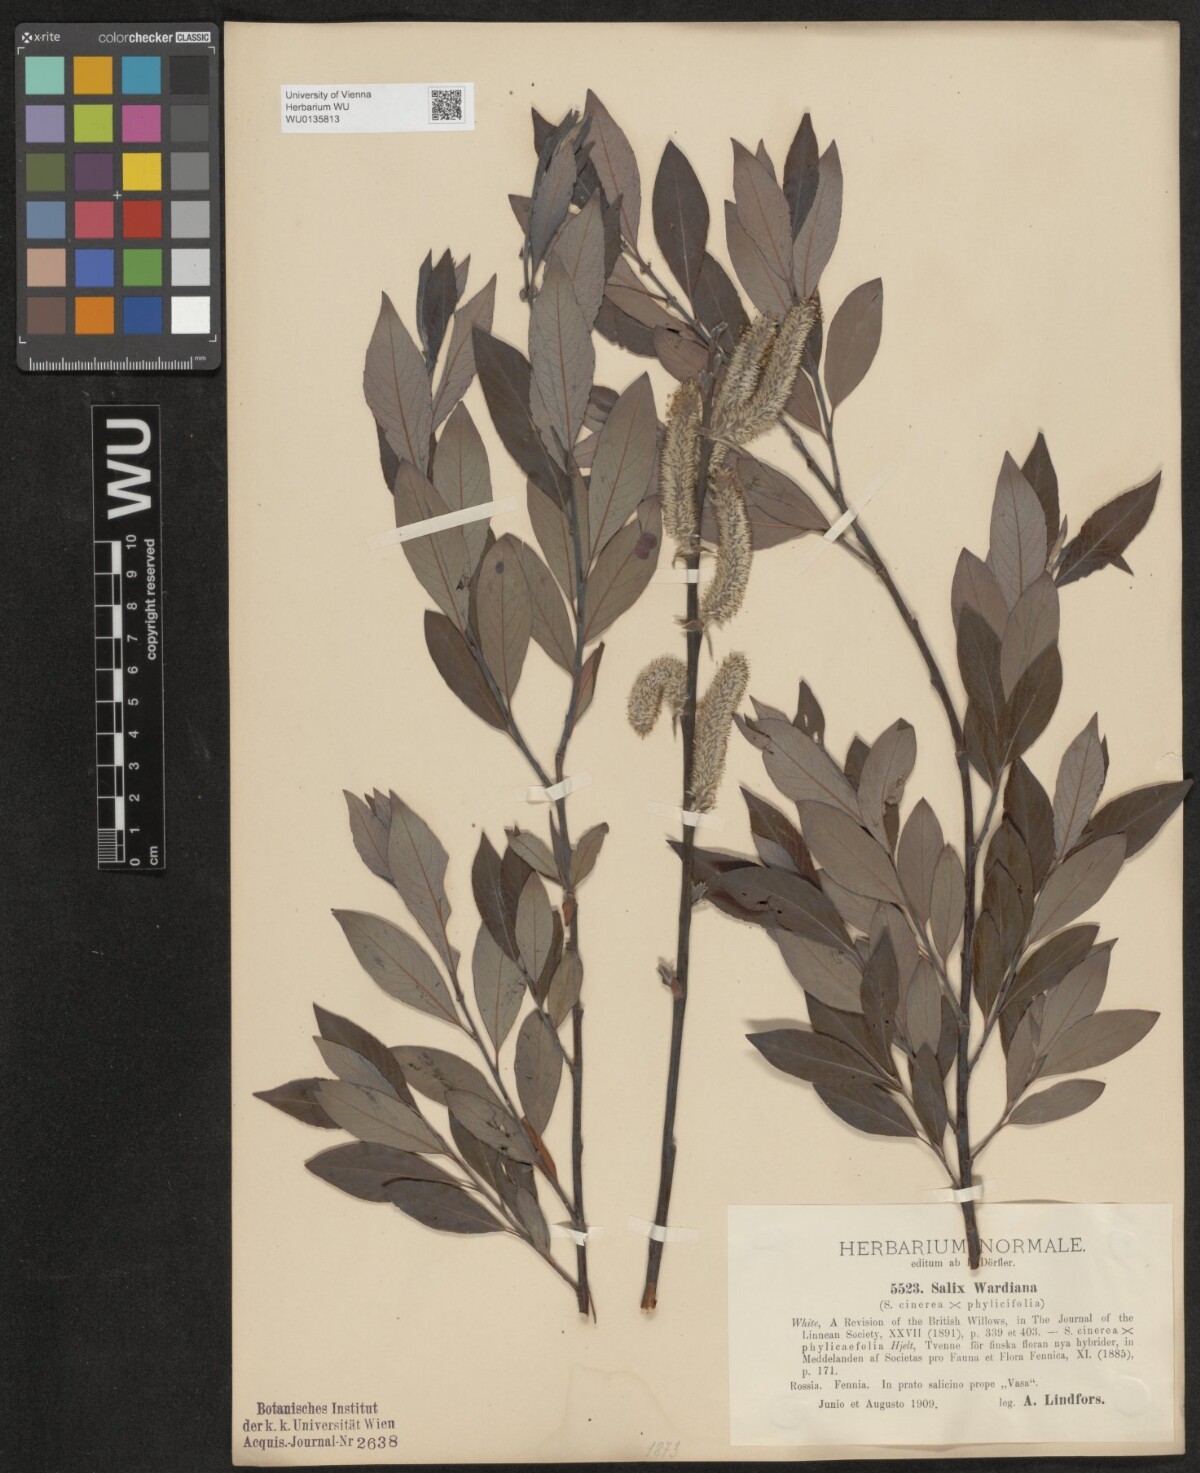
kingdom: Plantae
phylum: Tracheophyta
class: Magnoliopsida
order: Malpighiales
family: Salicaceae
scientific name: Salicaceae
